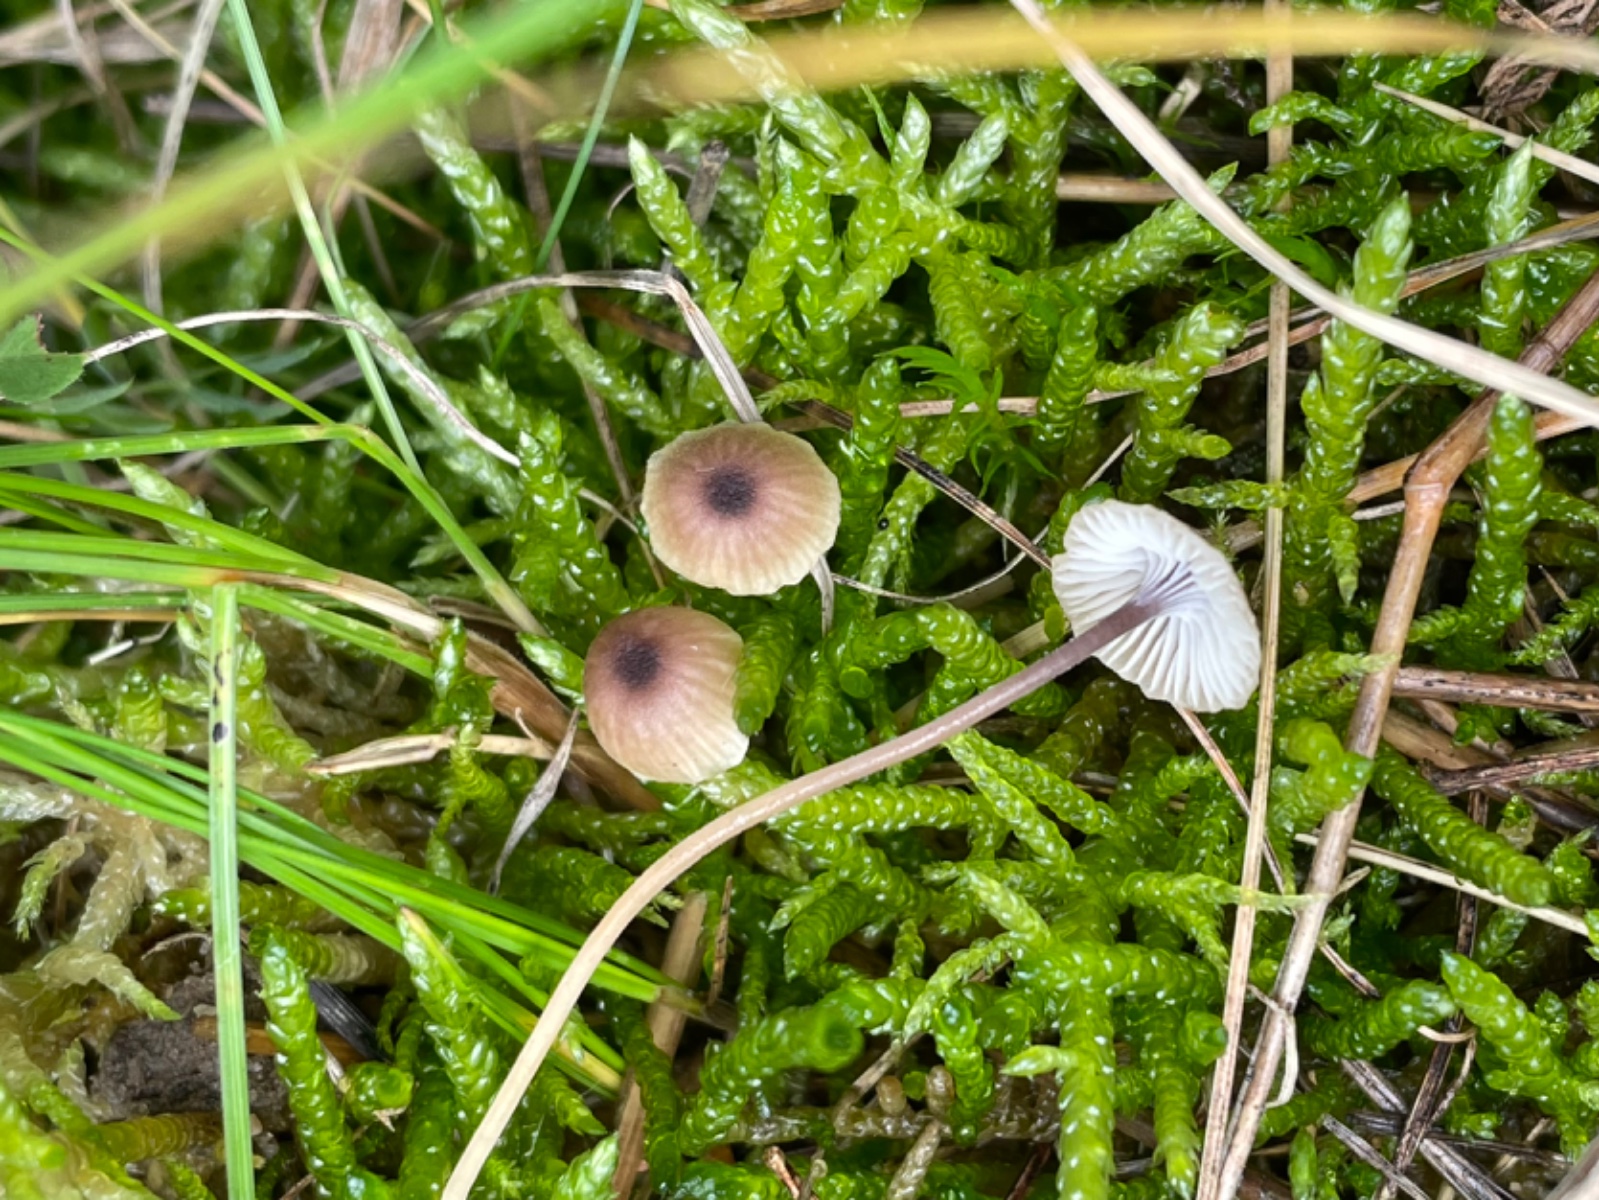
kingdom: Fungi
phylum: Basidiomycota
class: Agaricomycetes
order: Hymenochaetales
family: Rickenellaceae
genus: Rickenella
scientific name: Rickenella swartzii
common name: finstokket mosnavlehat
